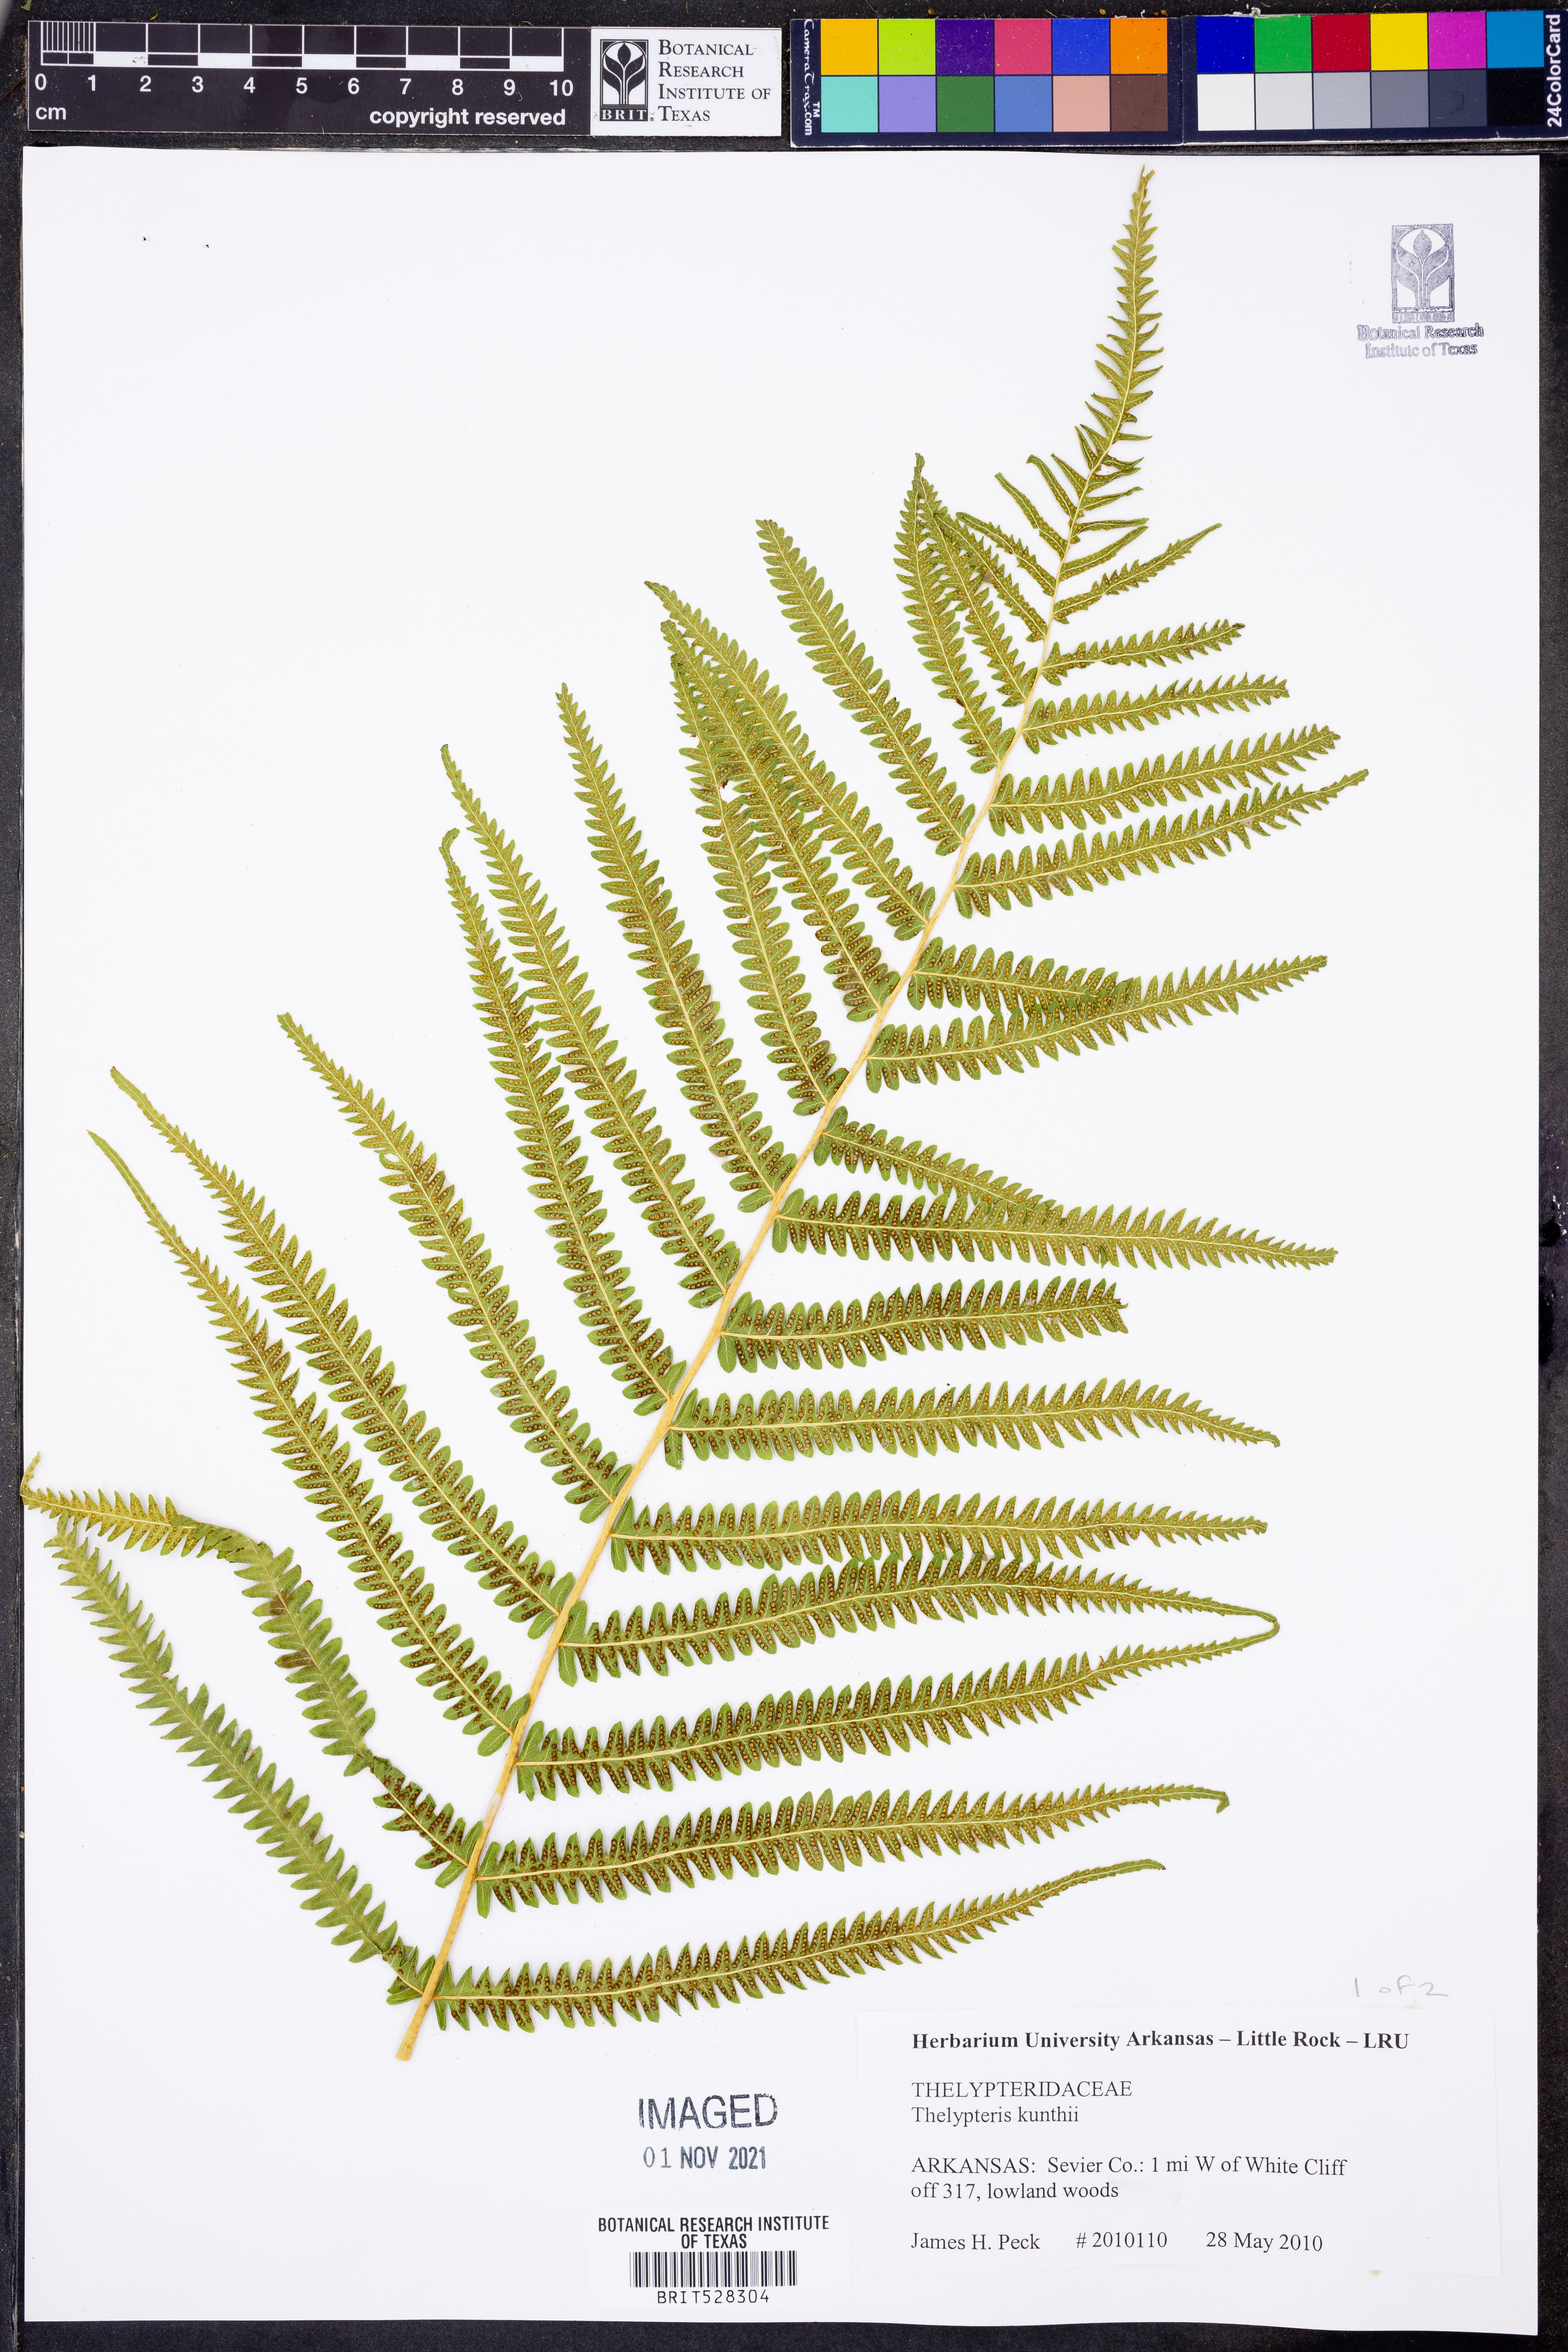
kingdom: Plantae
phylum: Tracheophyta
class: Polypodiopsida
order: Polypodiales
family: Thelypteridaceae
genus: Pelazoneuron
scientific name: Pelazoneuron kunthii
